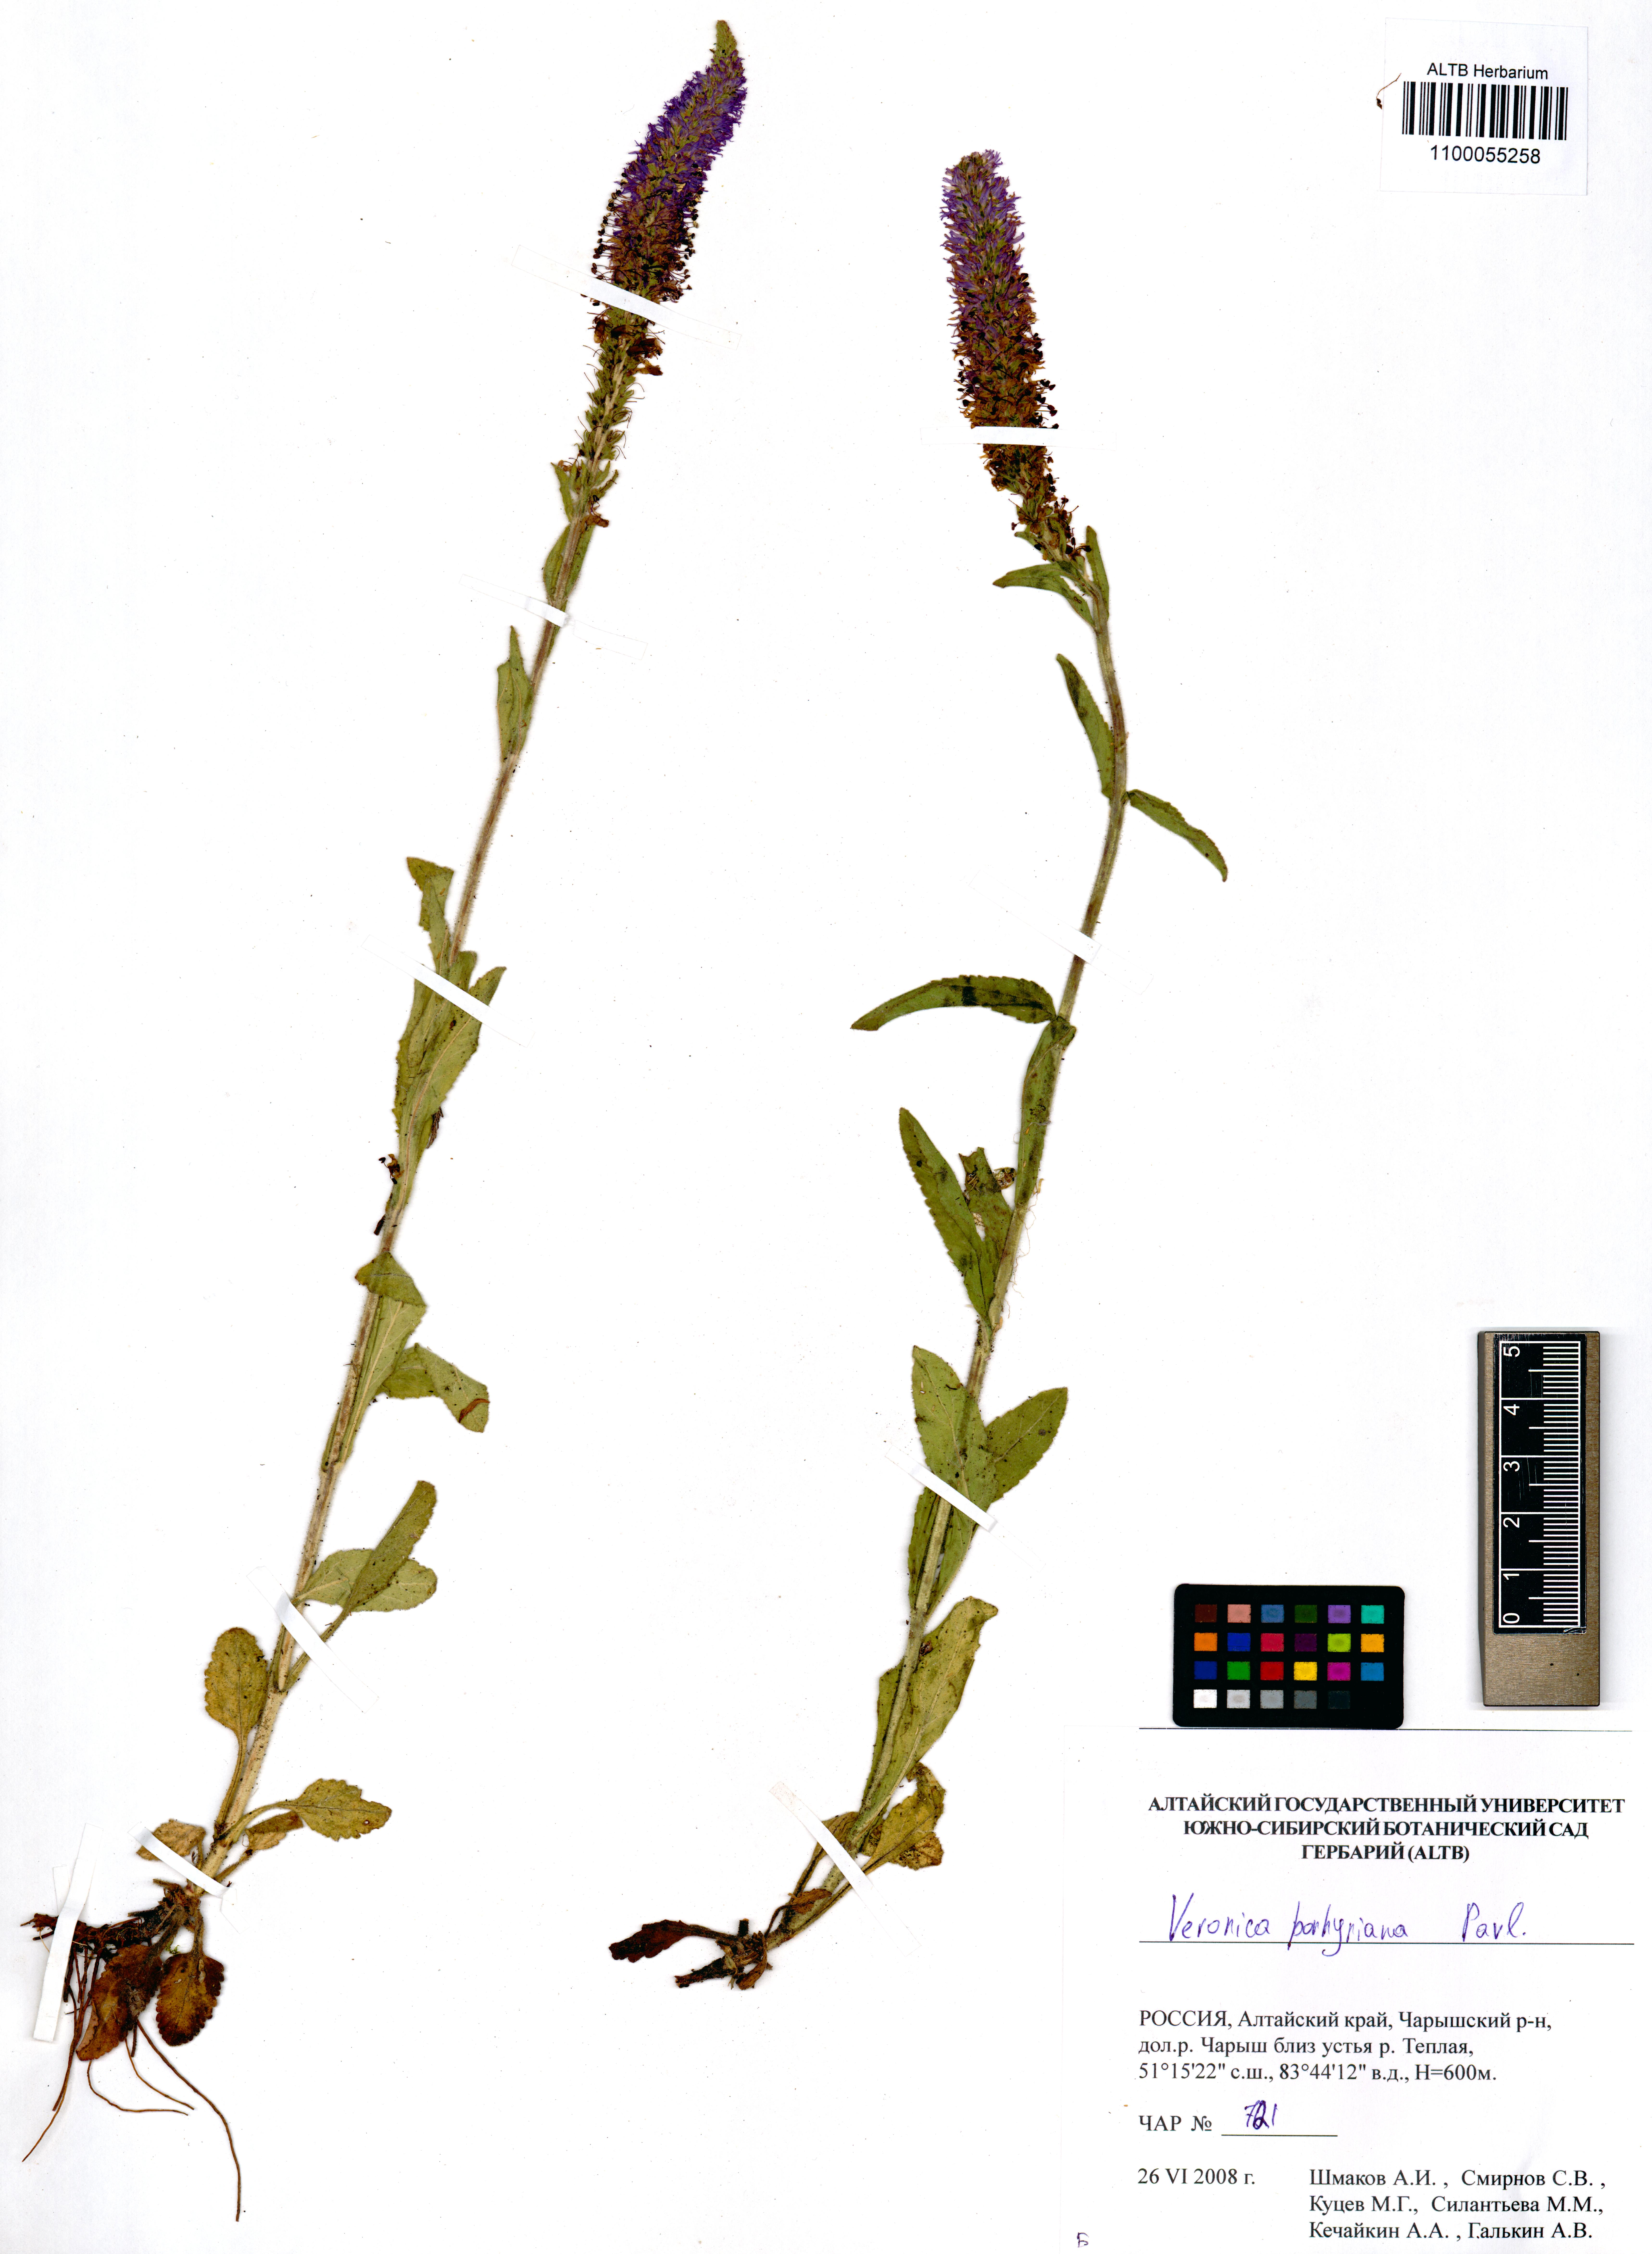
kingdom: Plantae
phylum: Tracheophyta
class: Magnoliopsida
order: Lamiales
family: Plantaginaceae
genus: Veronica
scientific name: Veronica porphyriana
